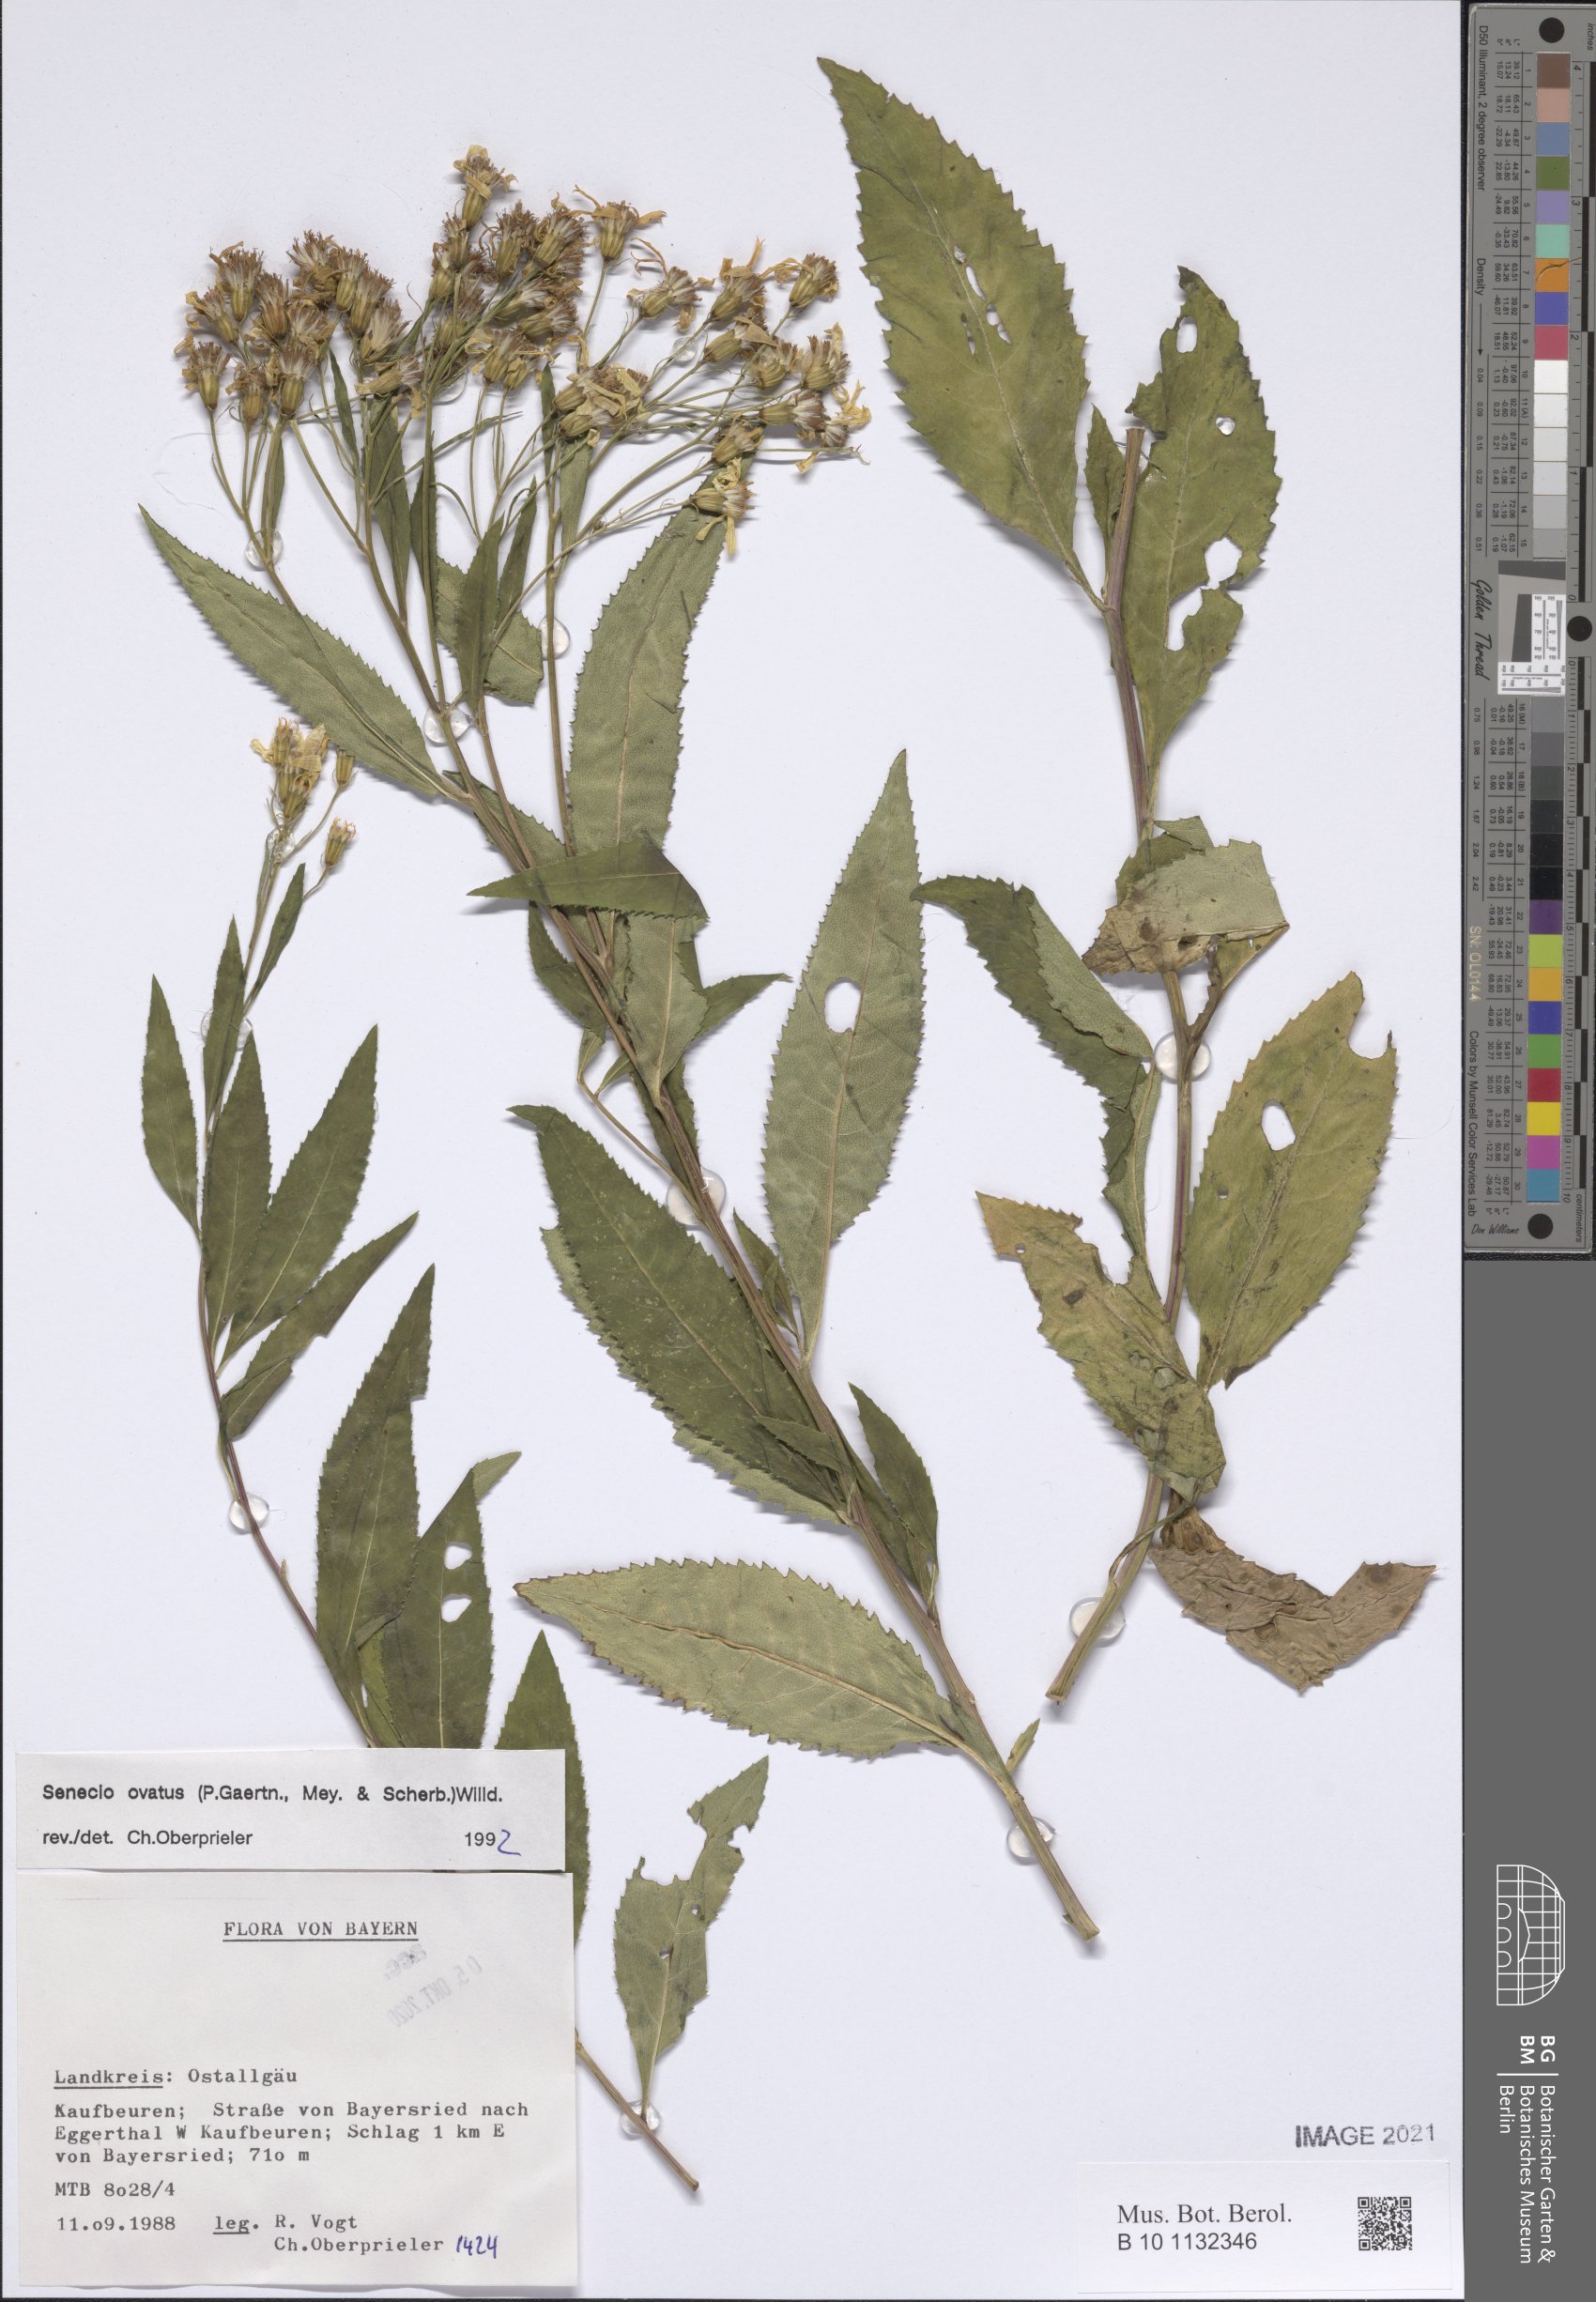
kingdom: Plantae
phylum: Tracheophyta
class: Magnoliopsida
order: Asterales
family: Asteraceae
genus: Senecio
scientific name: Senecio ovatus
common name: Wood ragwort
